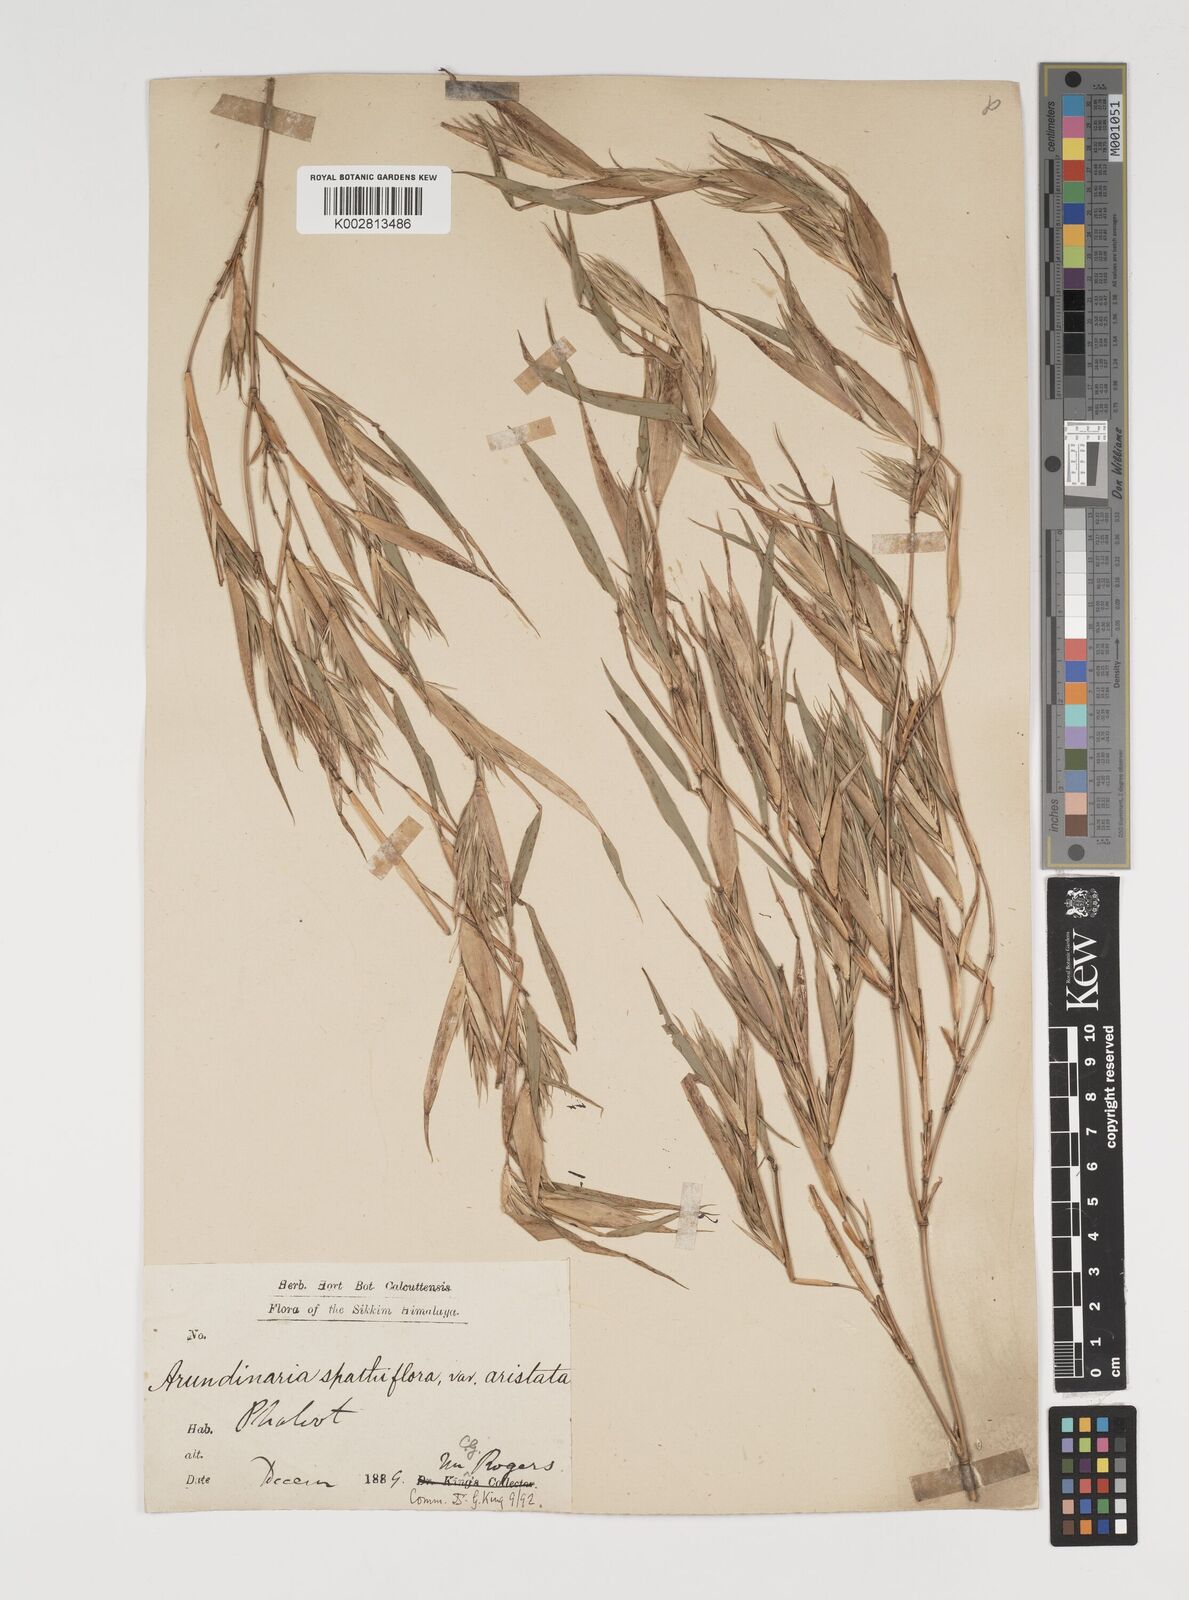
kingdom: Plantae
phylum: Tracheophyta
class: Liliopsida
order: Poales
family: Poaceae
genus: Thamnocalamus
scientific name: Thamnocalamus spathiflorus
